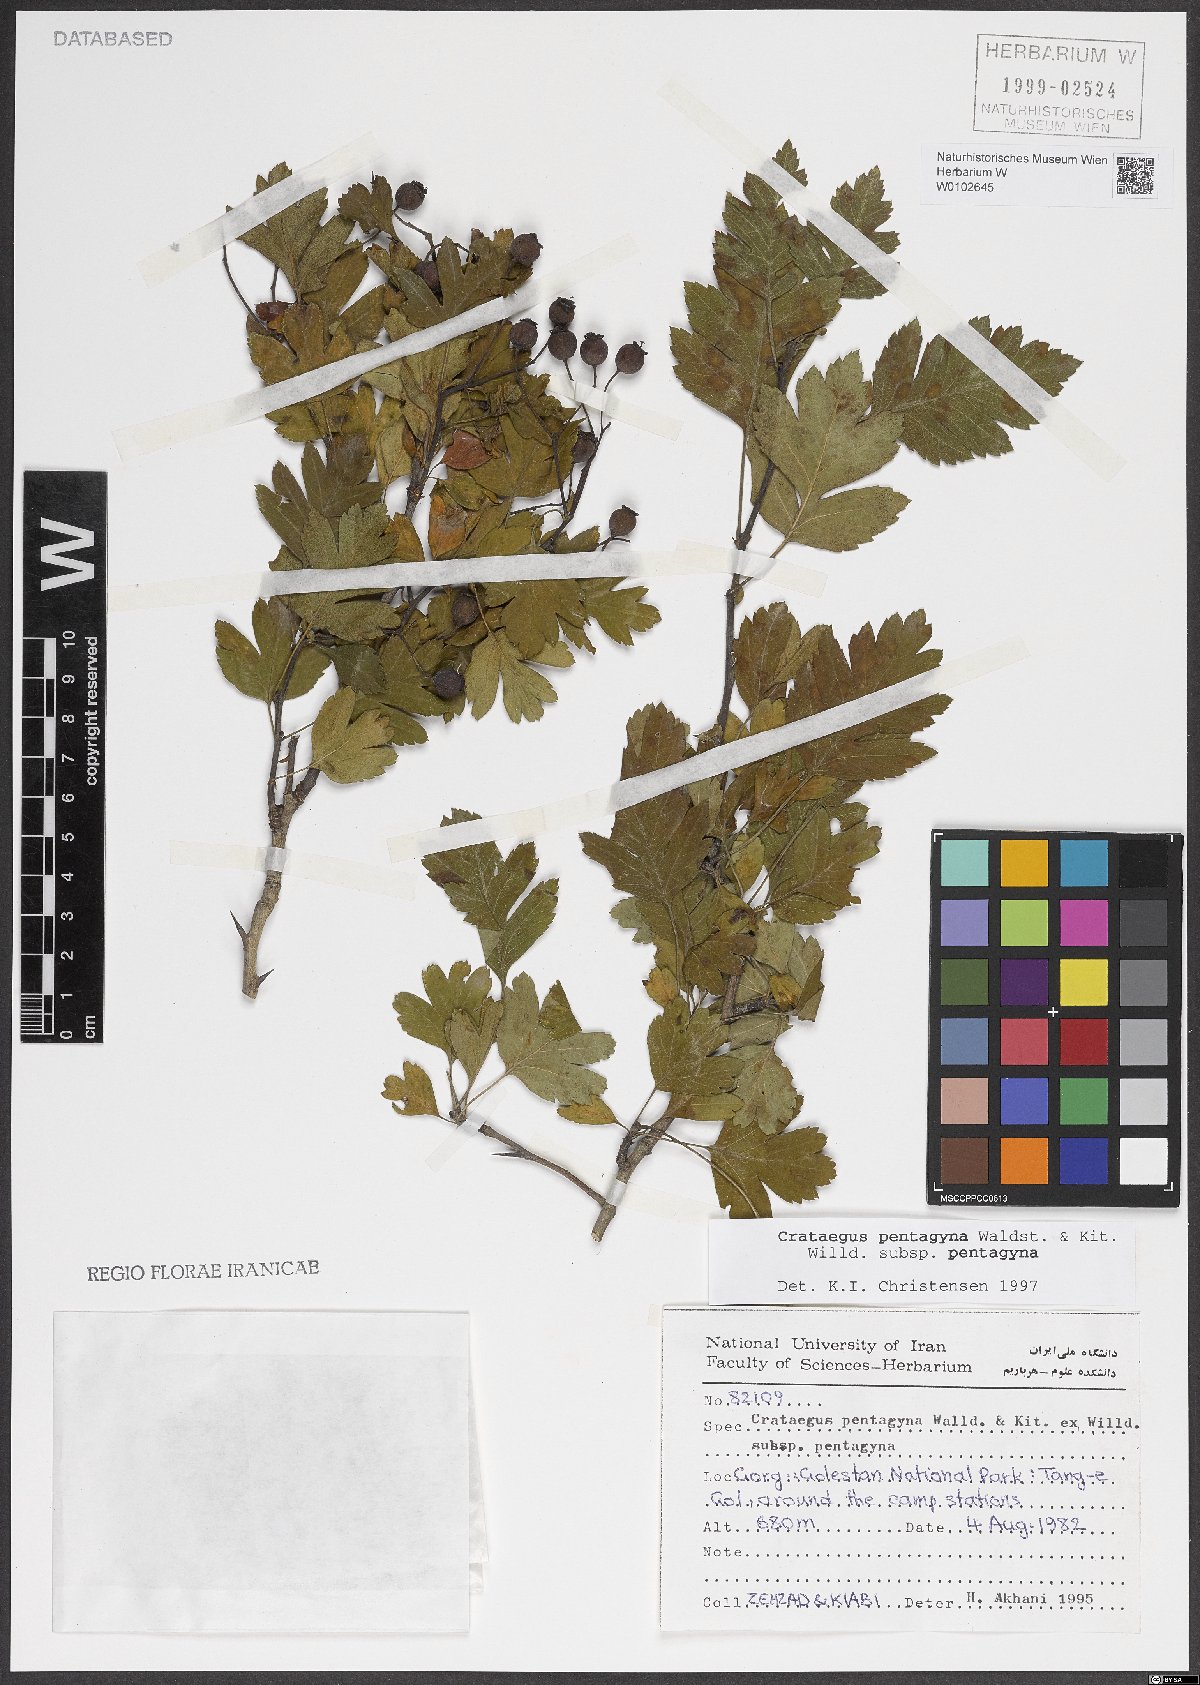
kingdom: Plantae
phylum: Tracheophyta
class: Magnoliopsida
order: Rosales
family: Rosaceae
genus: Crataegus
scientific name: Crataegus pentagyna
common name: Small-flowered black hawthorn
